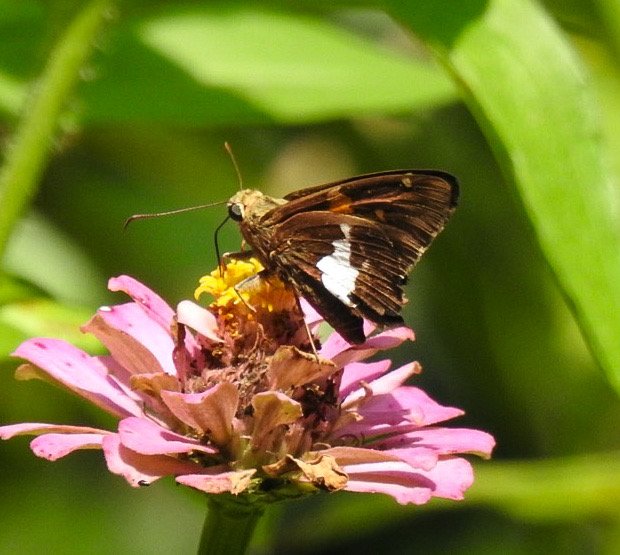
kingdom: Animalia
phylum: Arthropoda
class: Insecta
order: Lepidoptera
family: Hesperiidae
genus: Epargyreus
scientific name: Epargyreus clarus
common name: Silver-spotted Skipper
